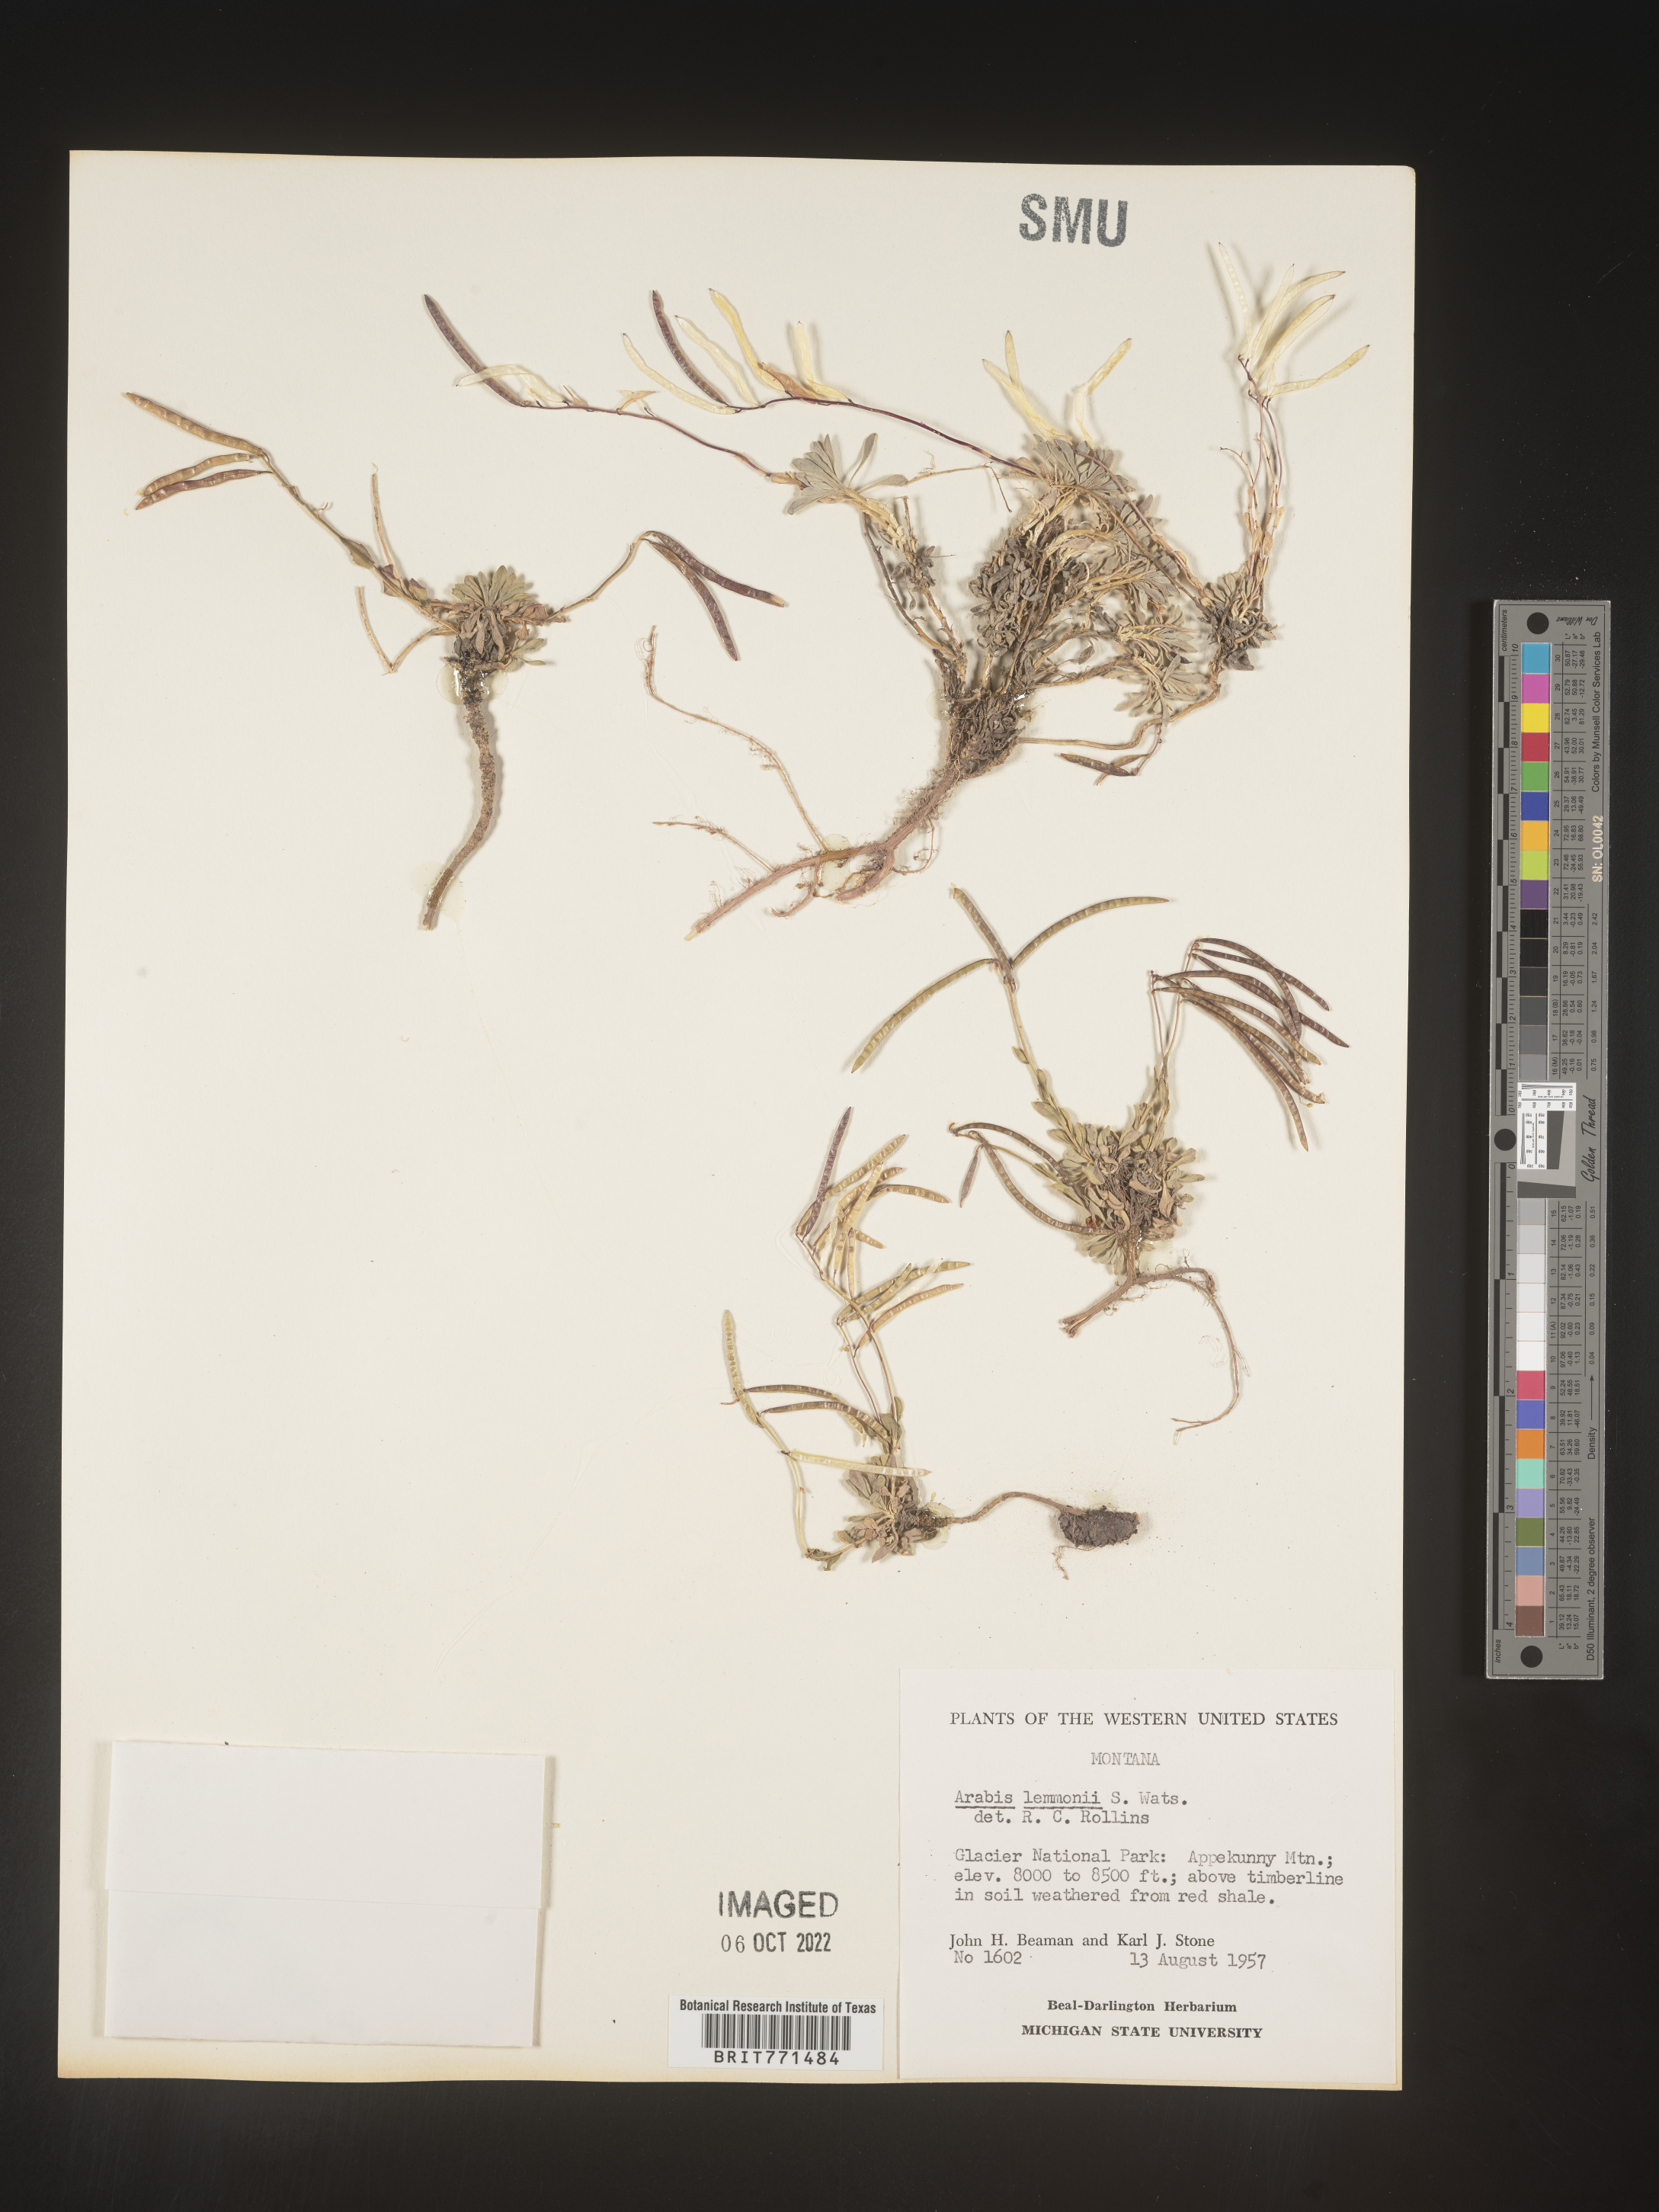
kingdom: Plantae
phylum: Tracheophyta
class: Magnoliopsida
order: Brassicales
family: Brassicaceae
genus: Arabis
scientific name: Arabis
